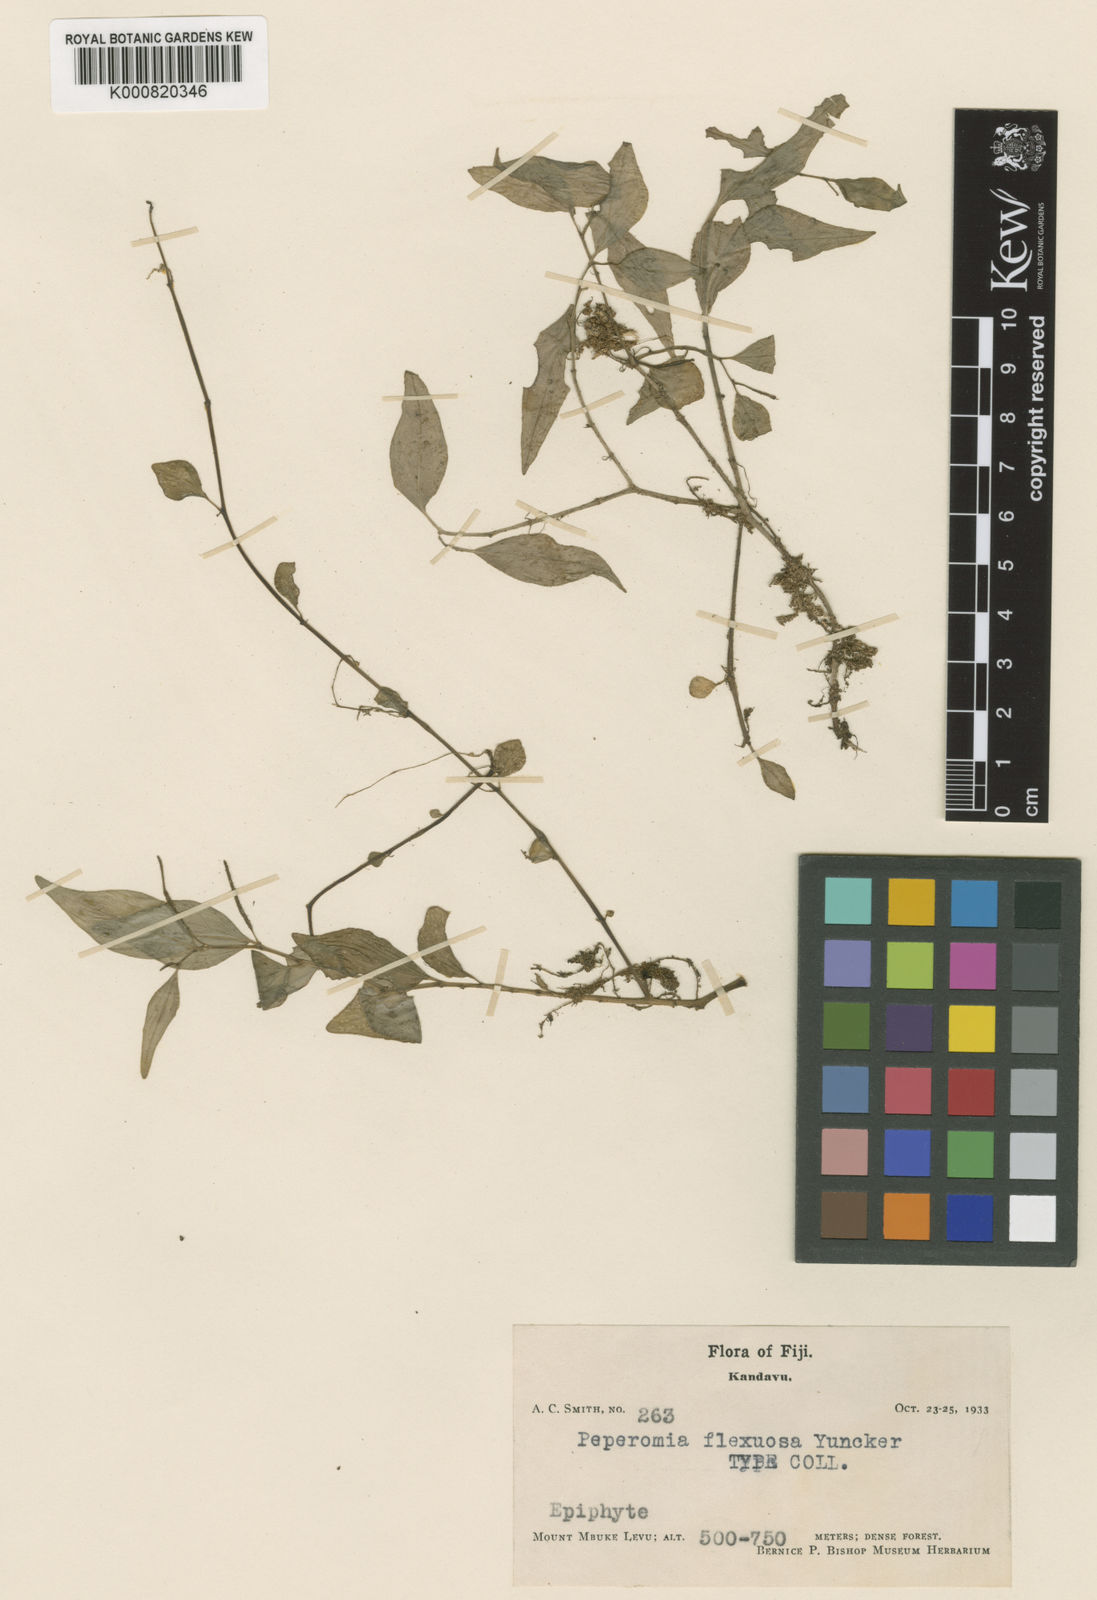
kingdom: Plantae
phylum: Tracheophyta
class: Magnoliopsida
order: Piperales
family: Piperaceae
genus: Peperomia
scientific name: Peperomia subroseispica
